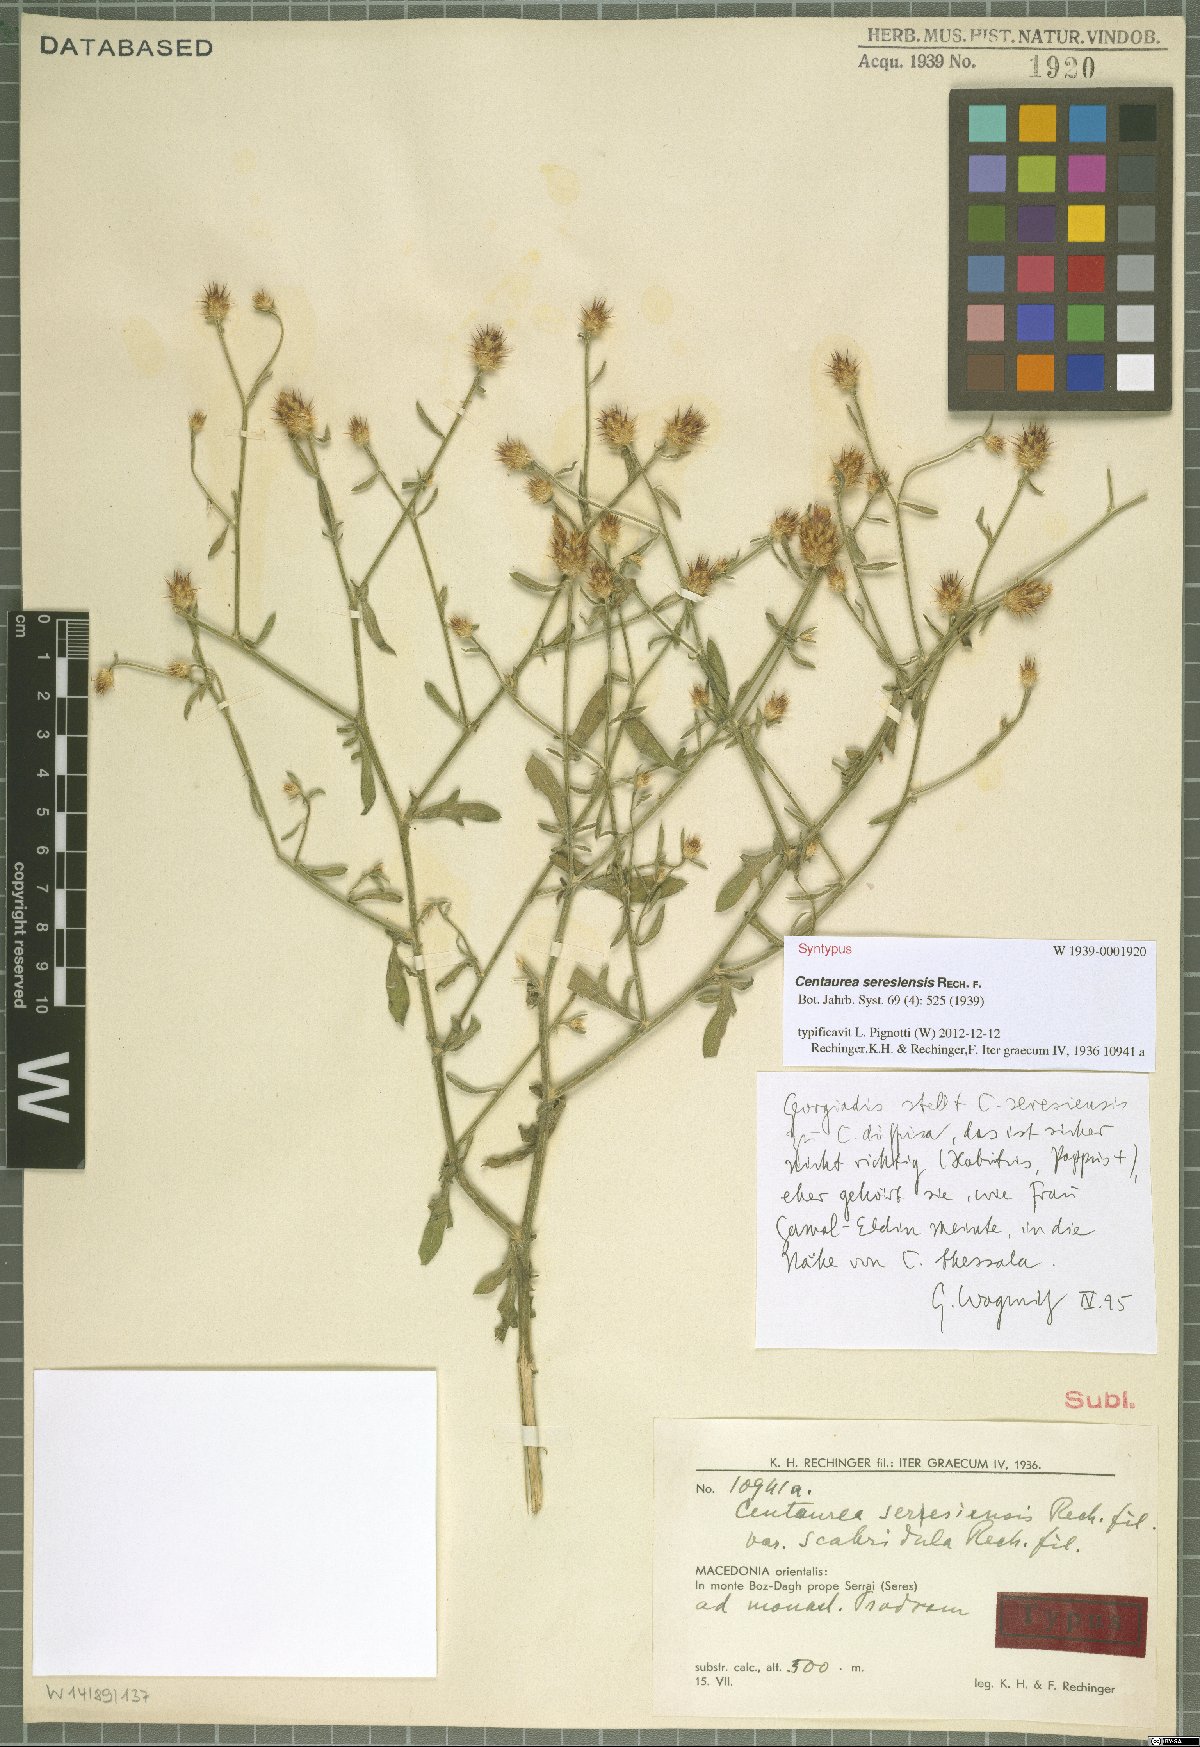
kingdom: Plantae
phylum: Tracheophyta
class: Magnoliopsida
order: Asterales
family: Asteraceae
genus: Centaurea
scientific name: Centaurea diffusa
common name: Diffuse knapweed
